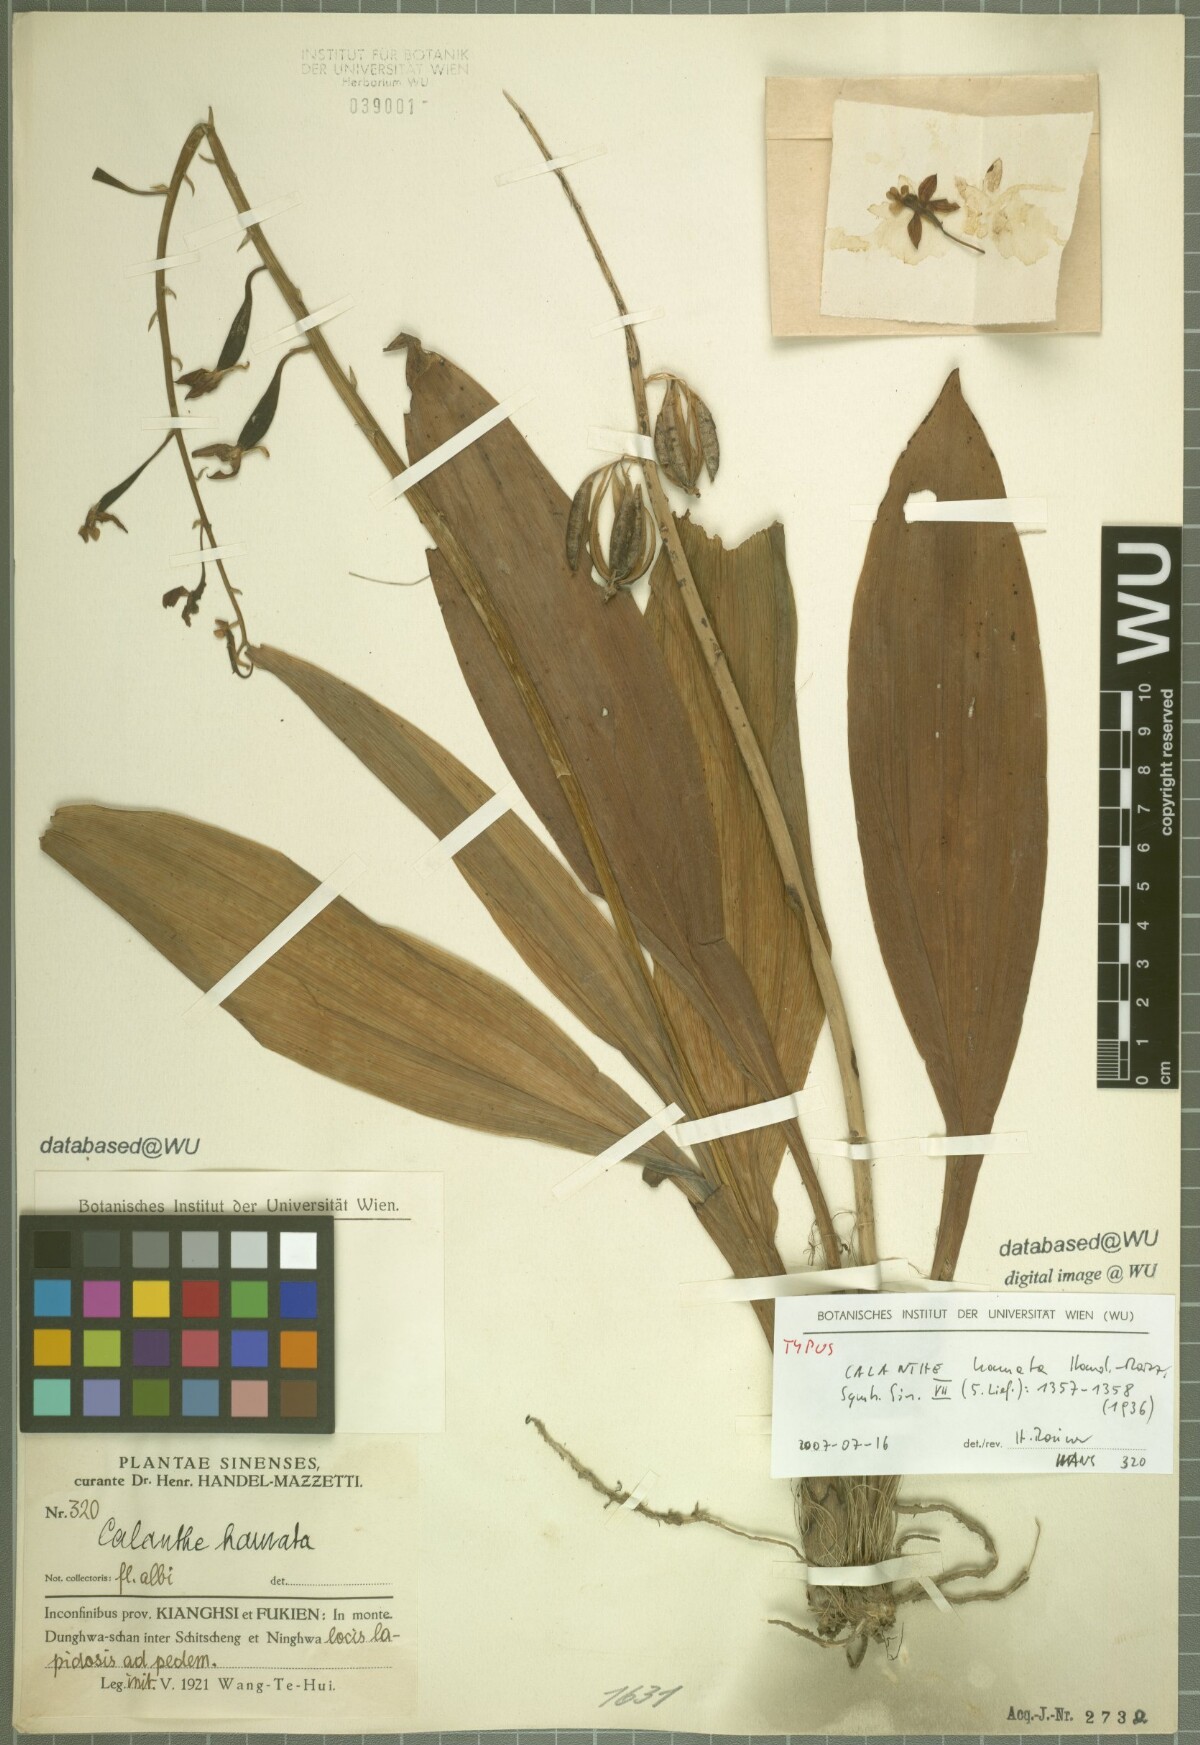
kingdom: Plantae
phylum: Tracheophyta
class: Liliopsida
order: Asparagales
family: Orchidaceae
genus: Calanthe
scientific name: Calanthe graciliflora
